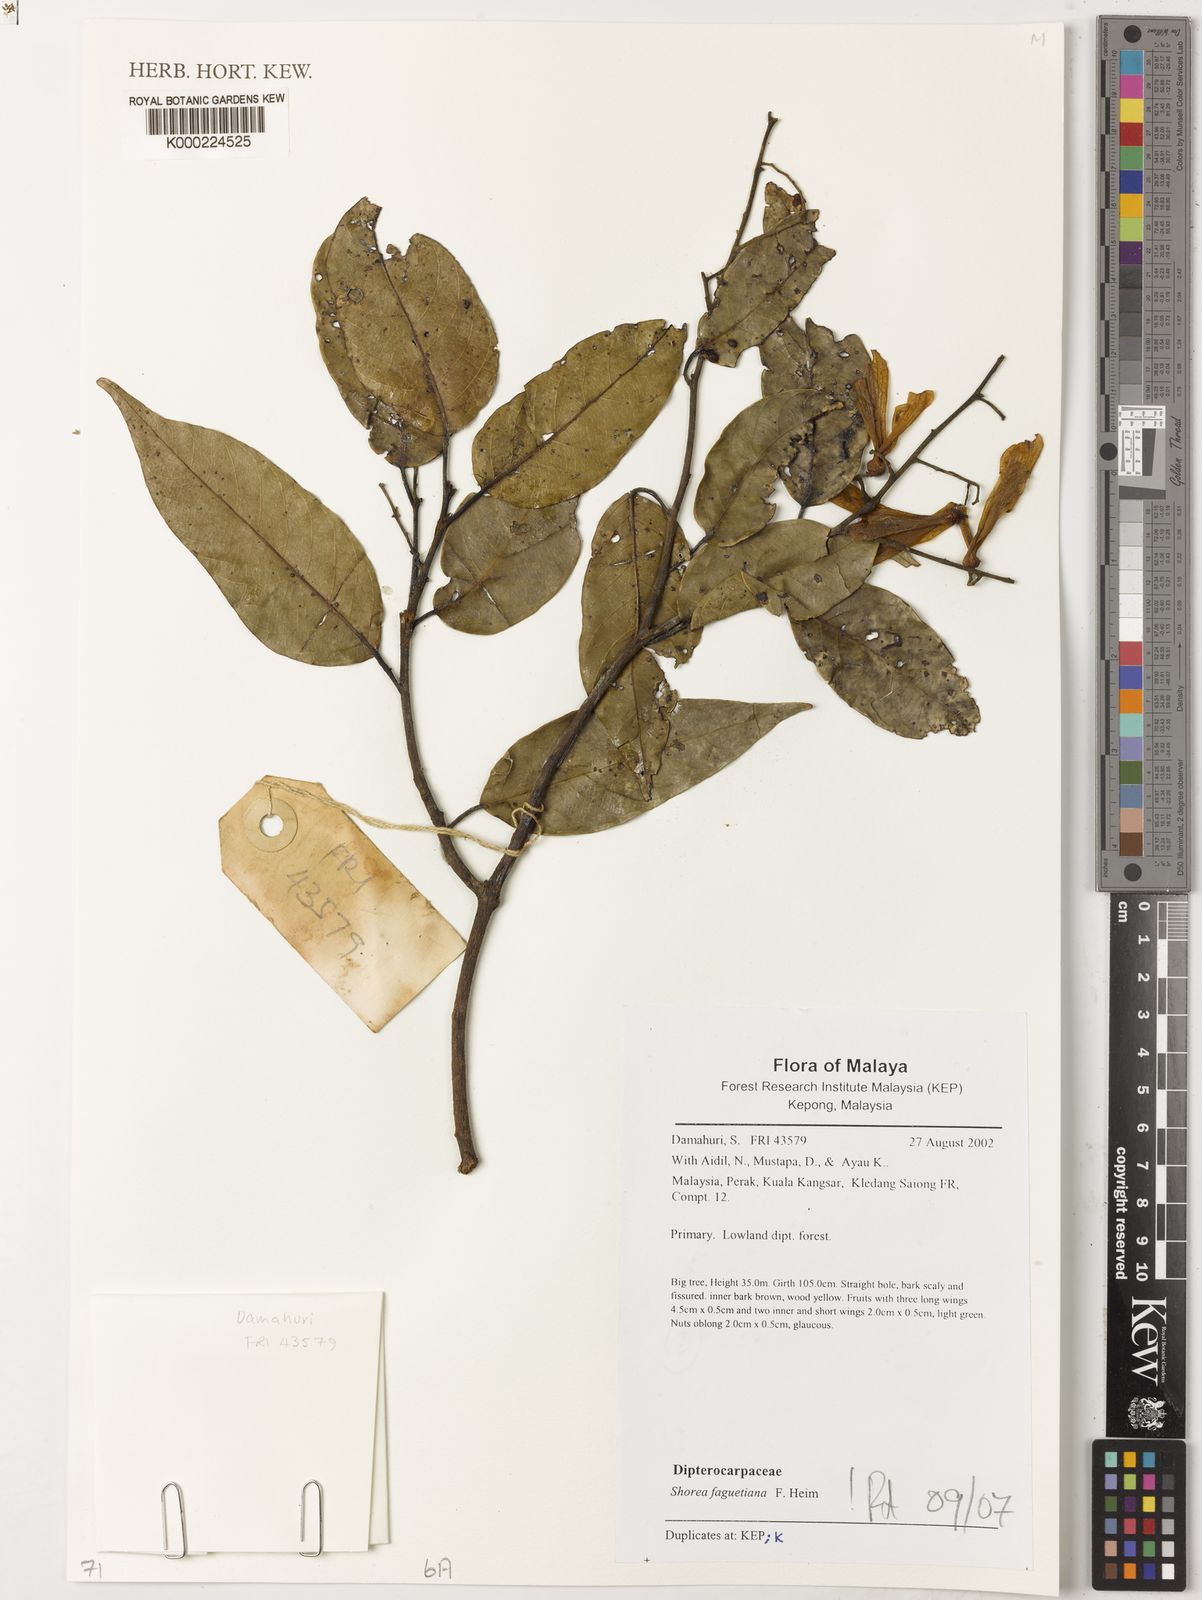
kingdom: Plantae
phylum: Tracheophyta
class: Magnoliopsida
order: Malvales
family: Dipterocarpaceae
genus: Shorea
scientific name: Shorea faguetiana
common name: Yellow meranti
